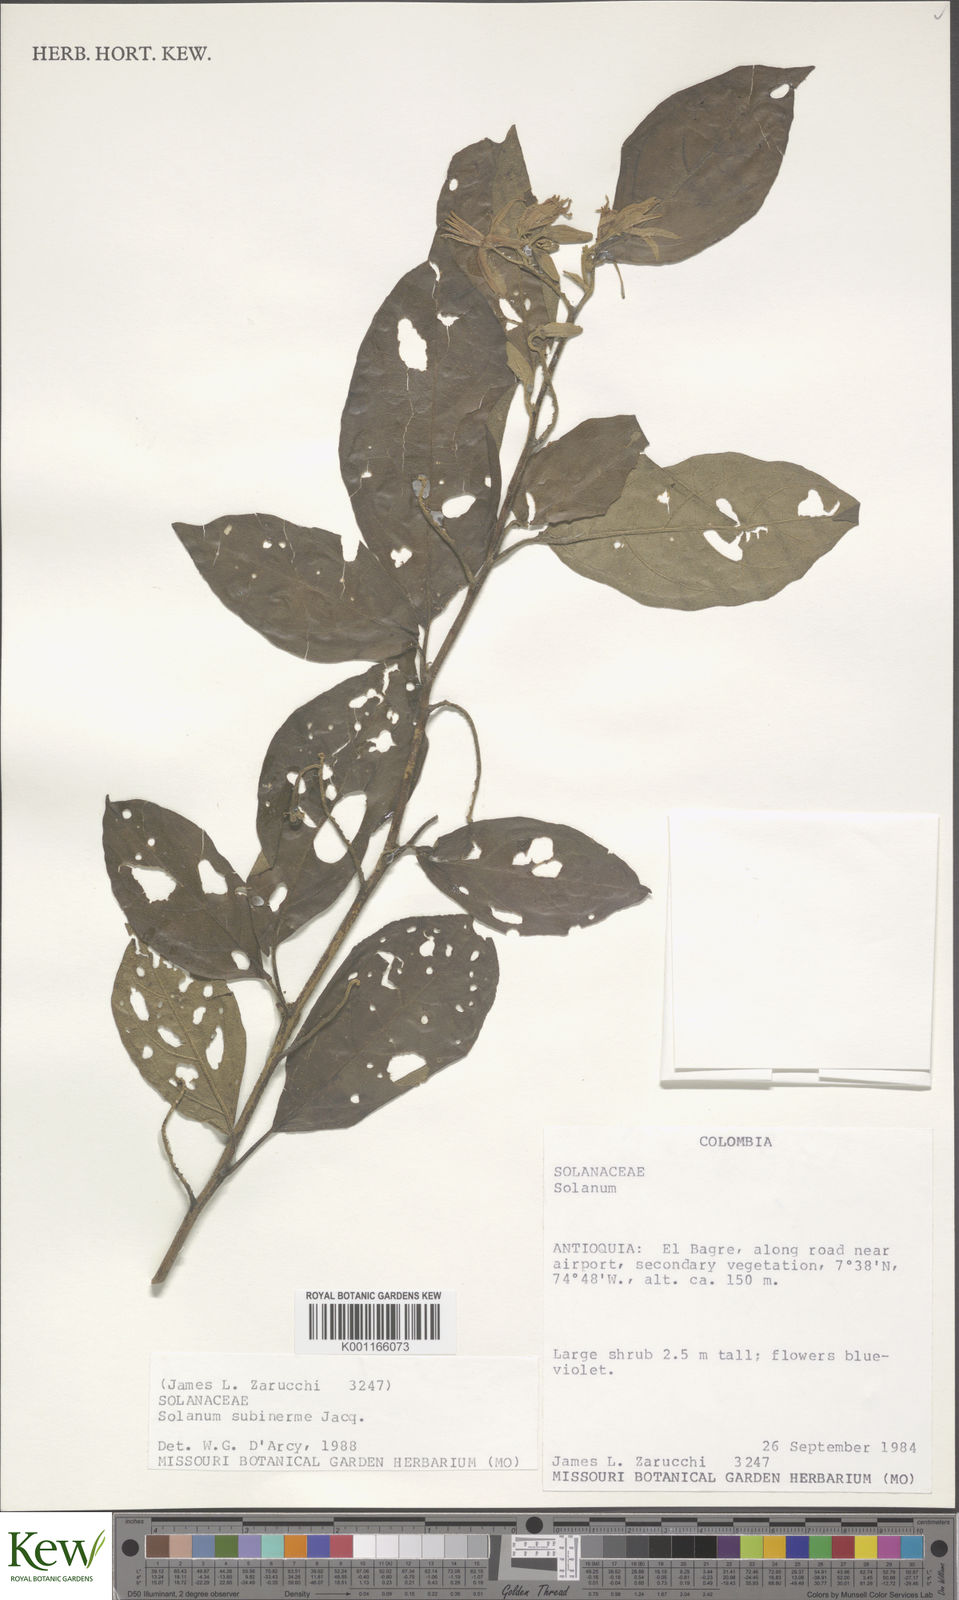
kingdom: Plantae
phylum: Tracheophyta
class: Magnoliopsida
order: Solanales
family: Solanaceae
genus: Solanum
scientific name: Solanum subinerme
